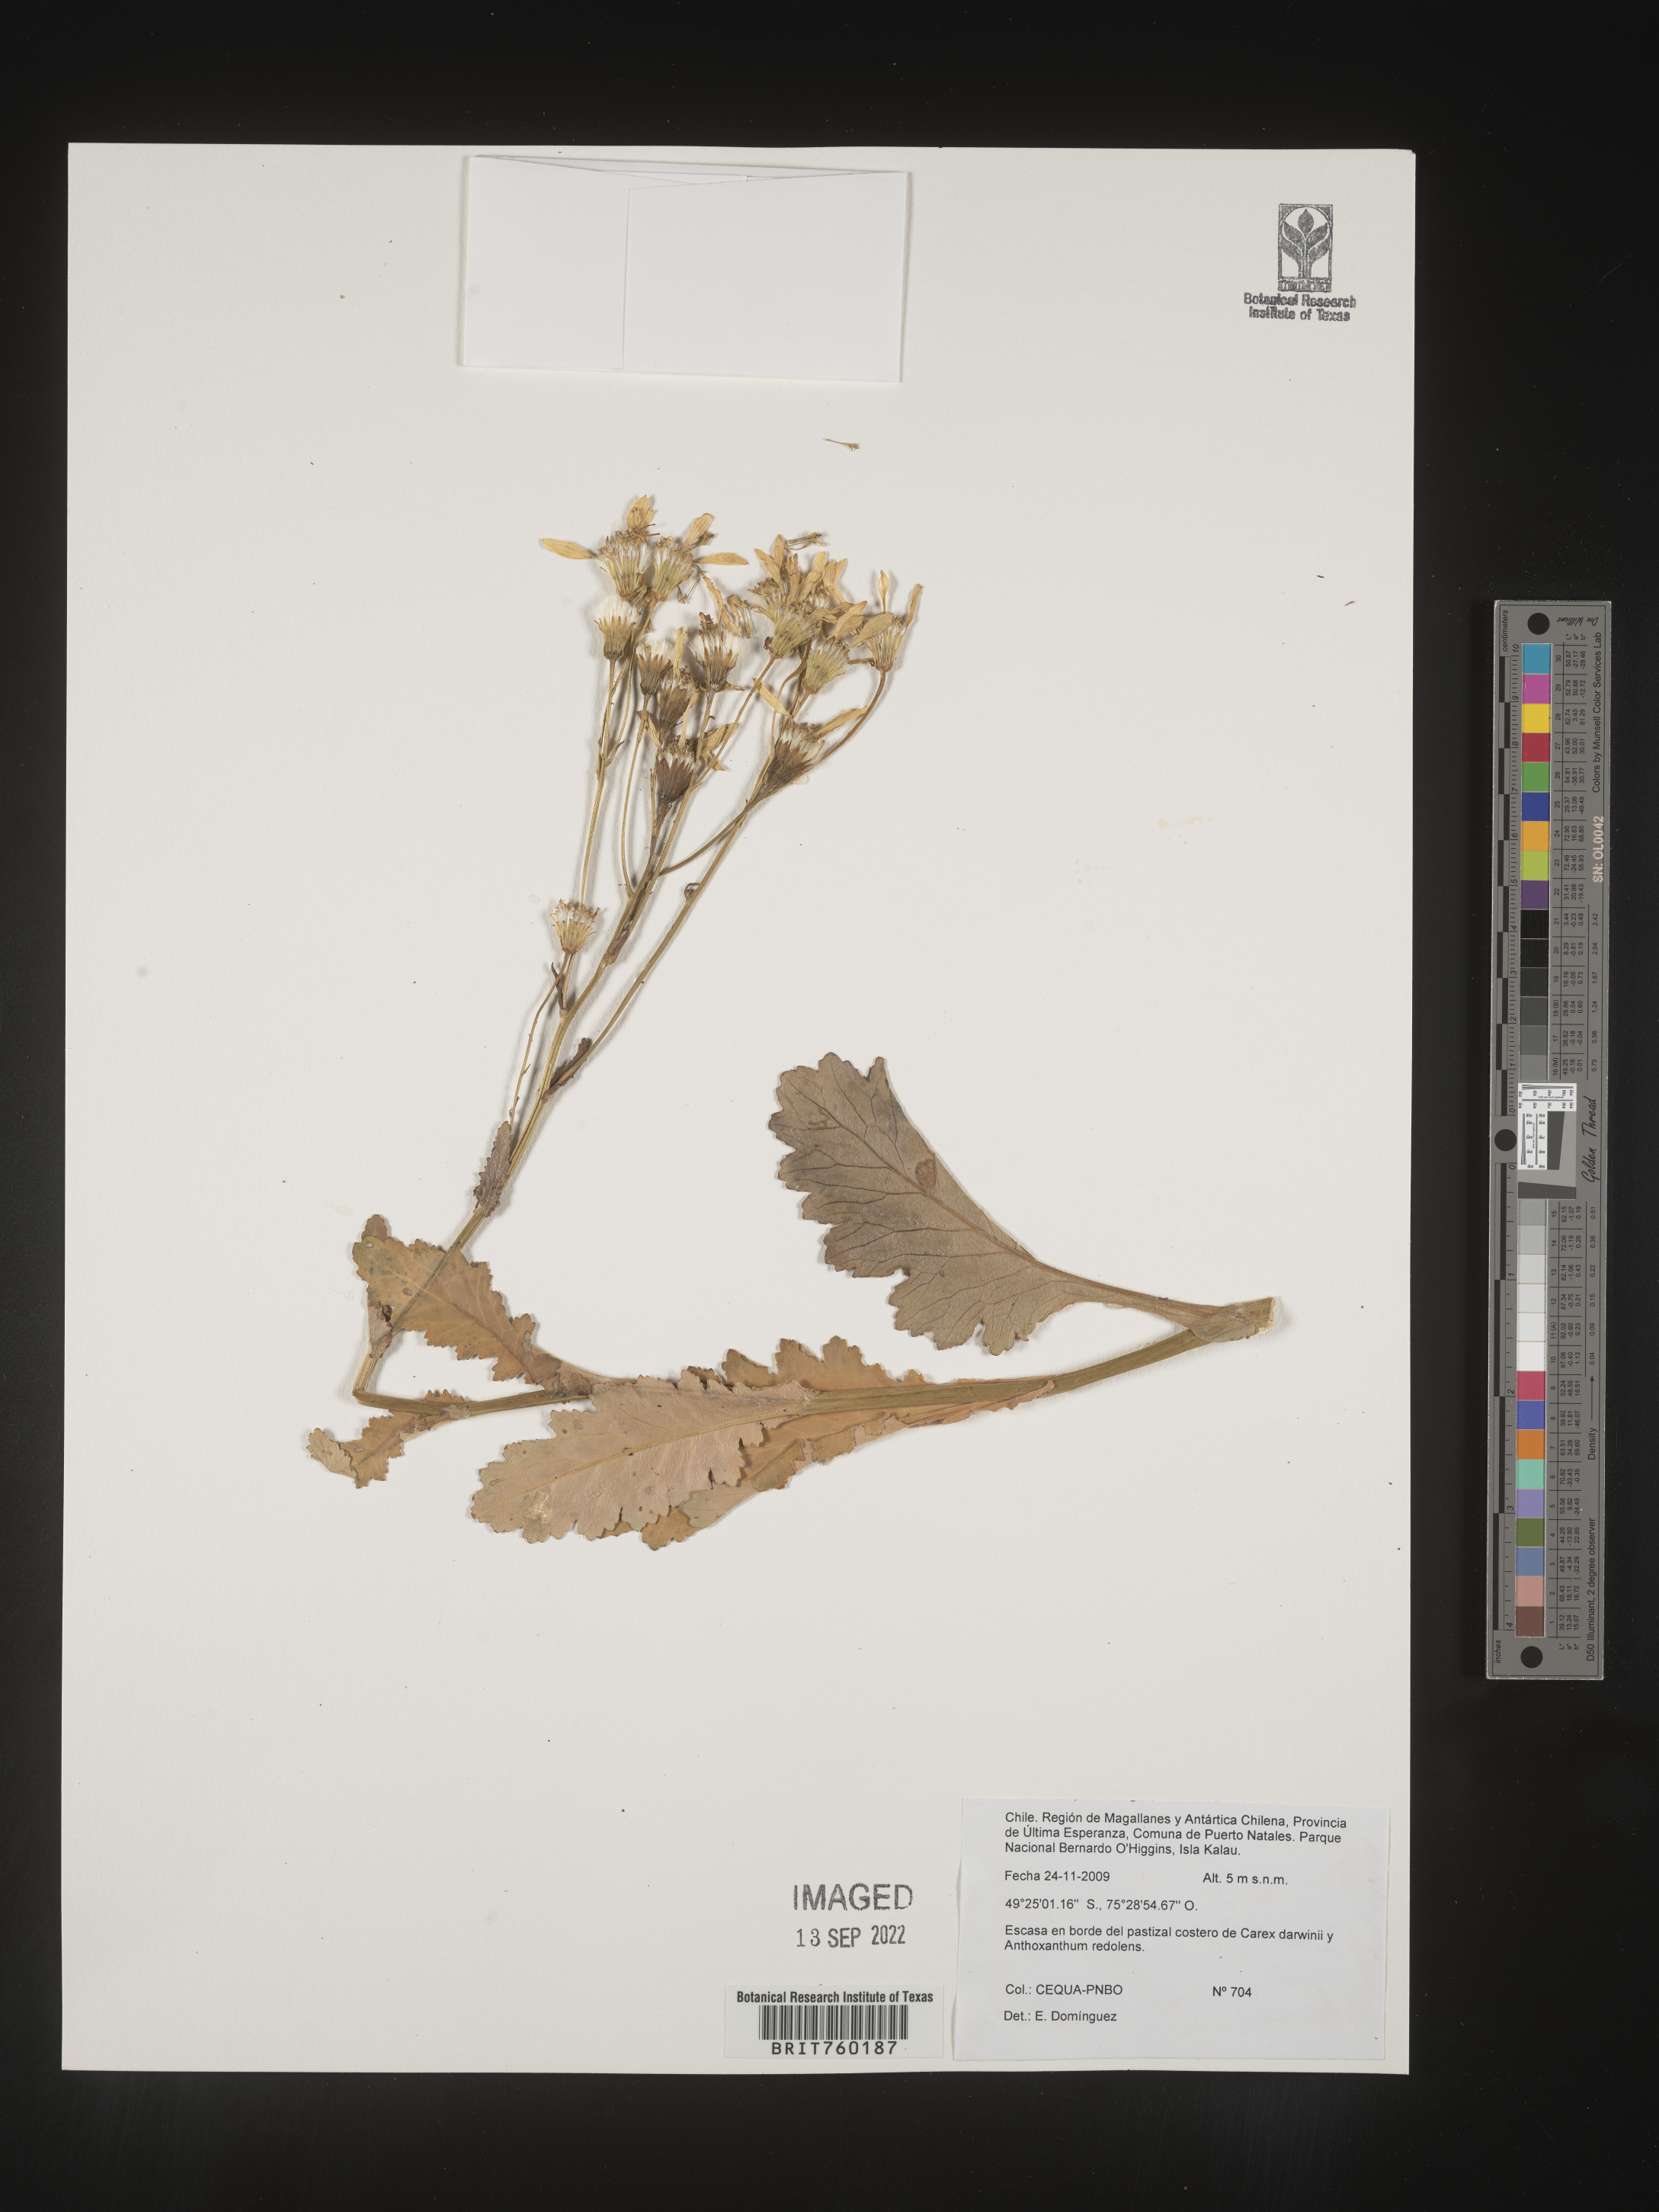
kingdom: Plantae
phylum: Tracheophyta
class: Magnoliopsida
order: Asterales
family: Asteraceae
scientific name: Asteraceae
